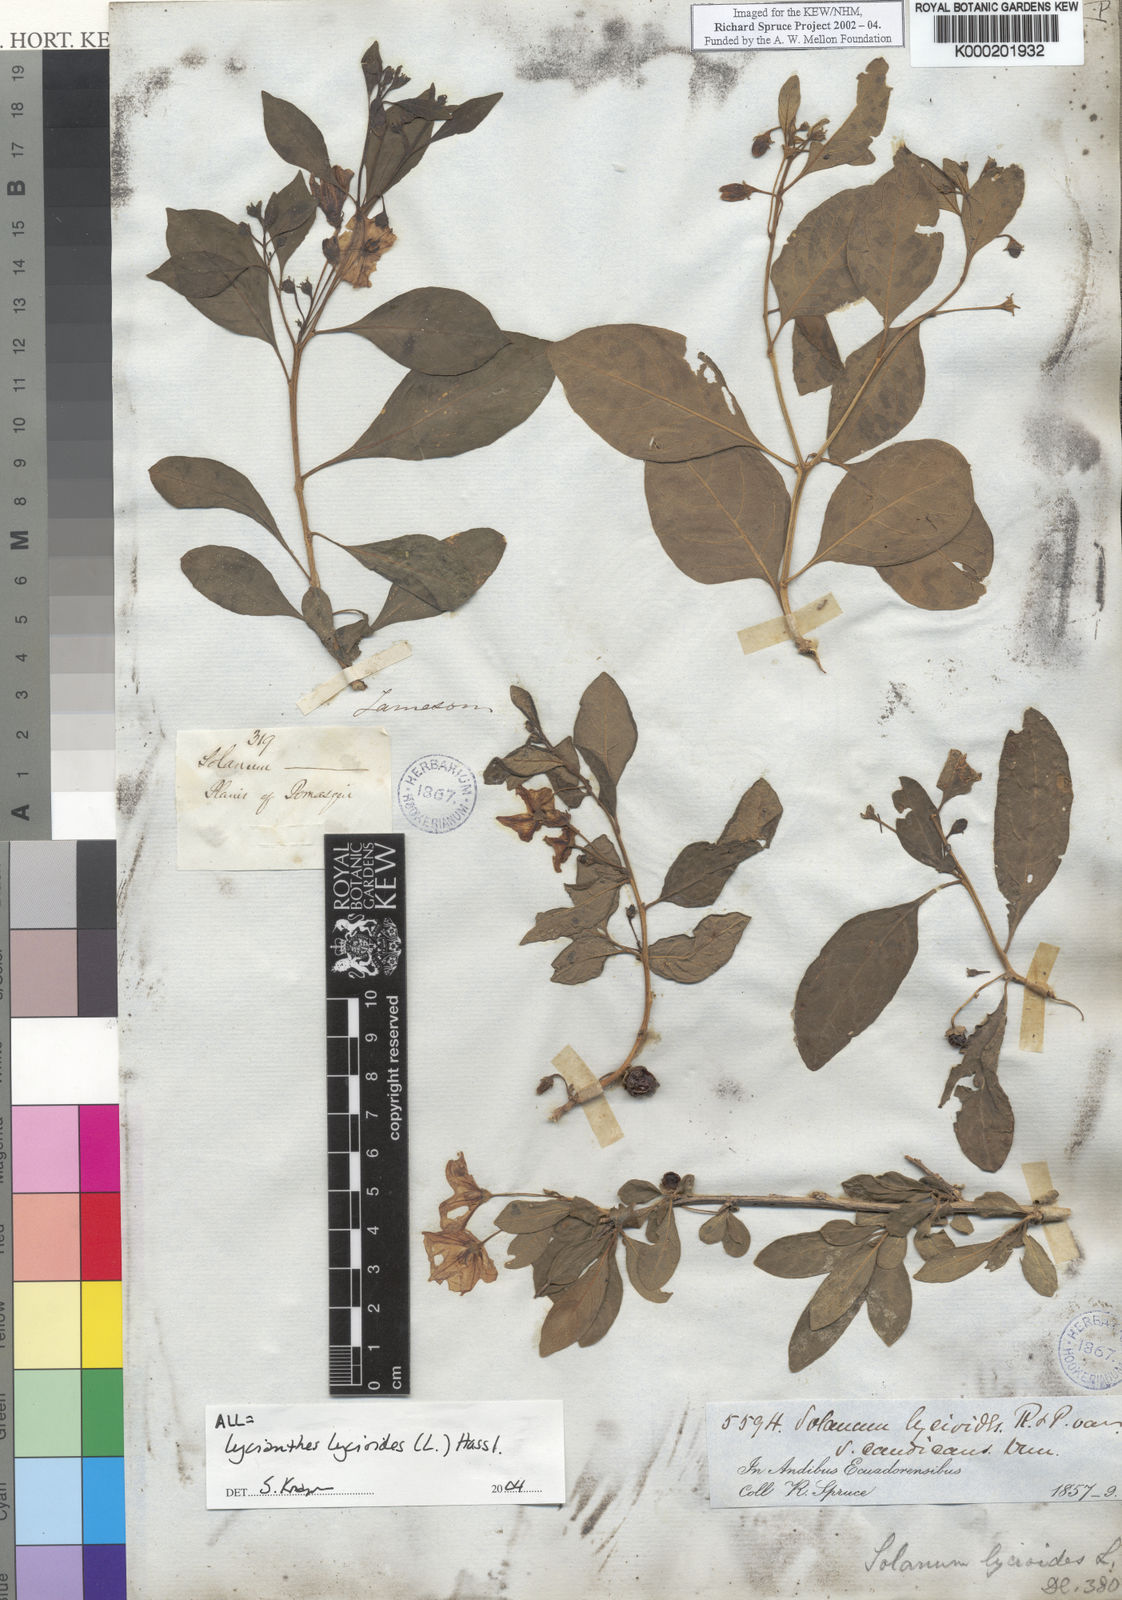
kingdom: Plantae
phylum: Tracheophyta
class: Magnoliopsida
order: Solanales
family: Solanaceae
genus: Lycianthes
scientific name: Lycianthes lycioides
